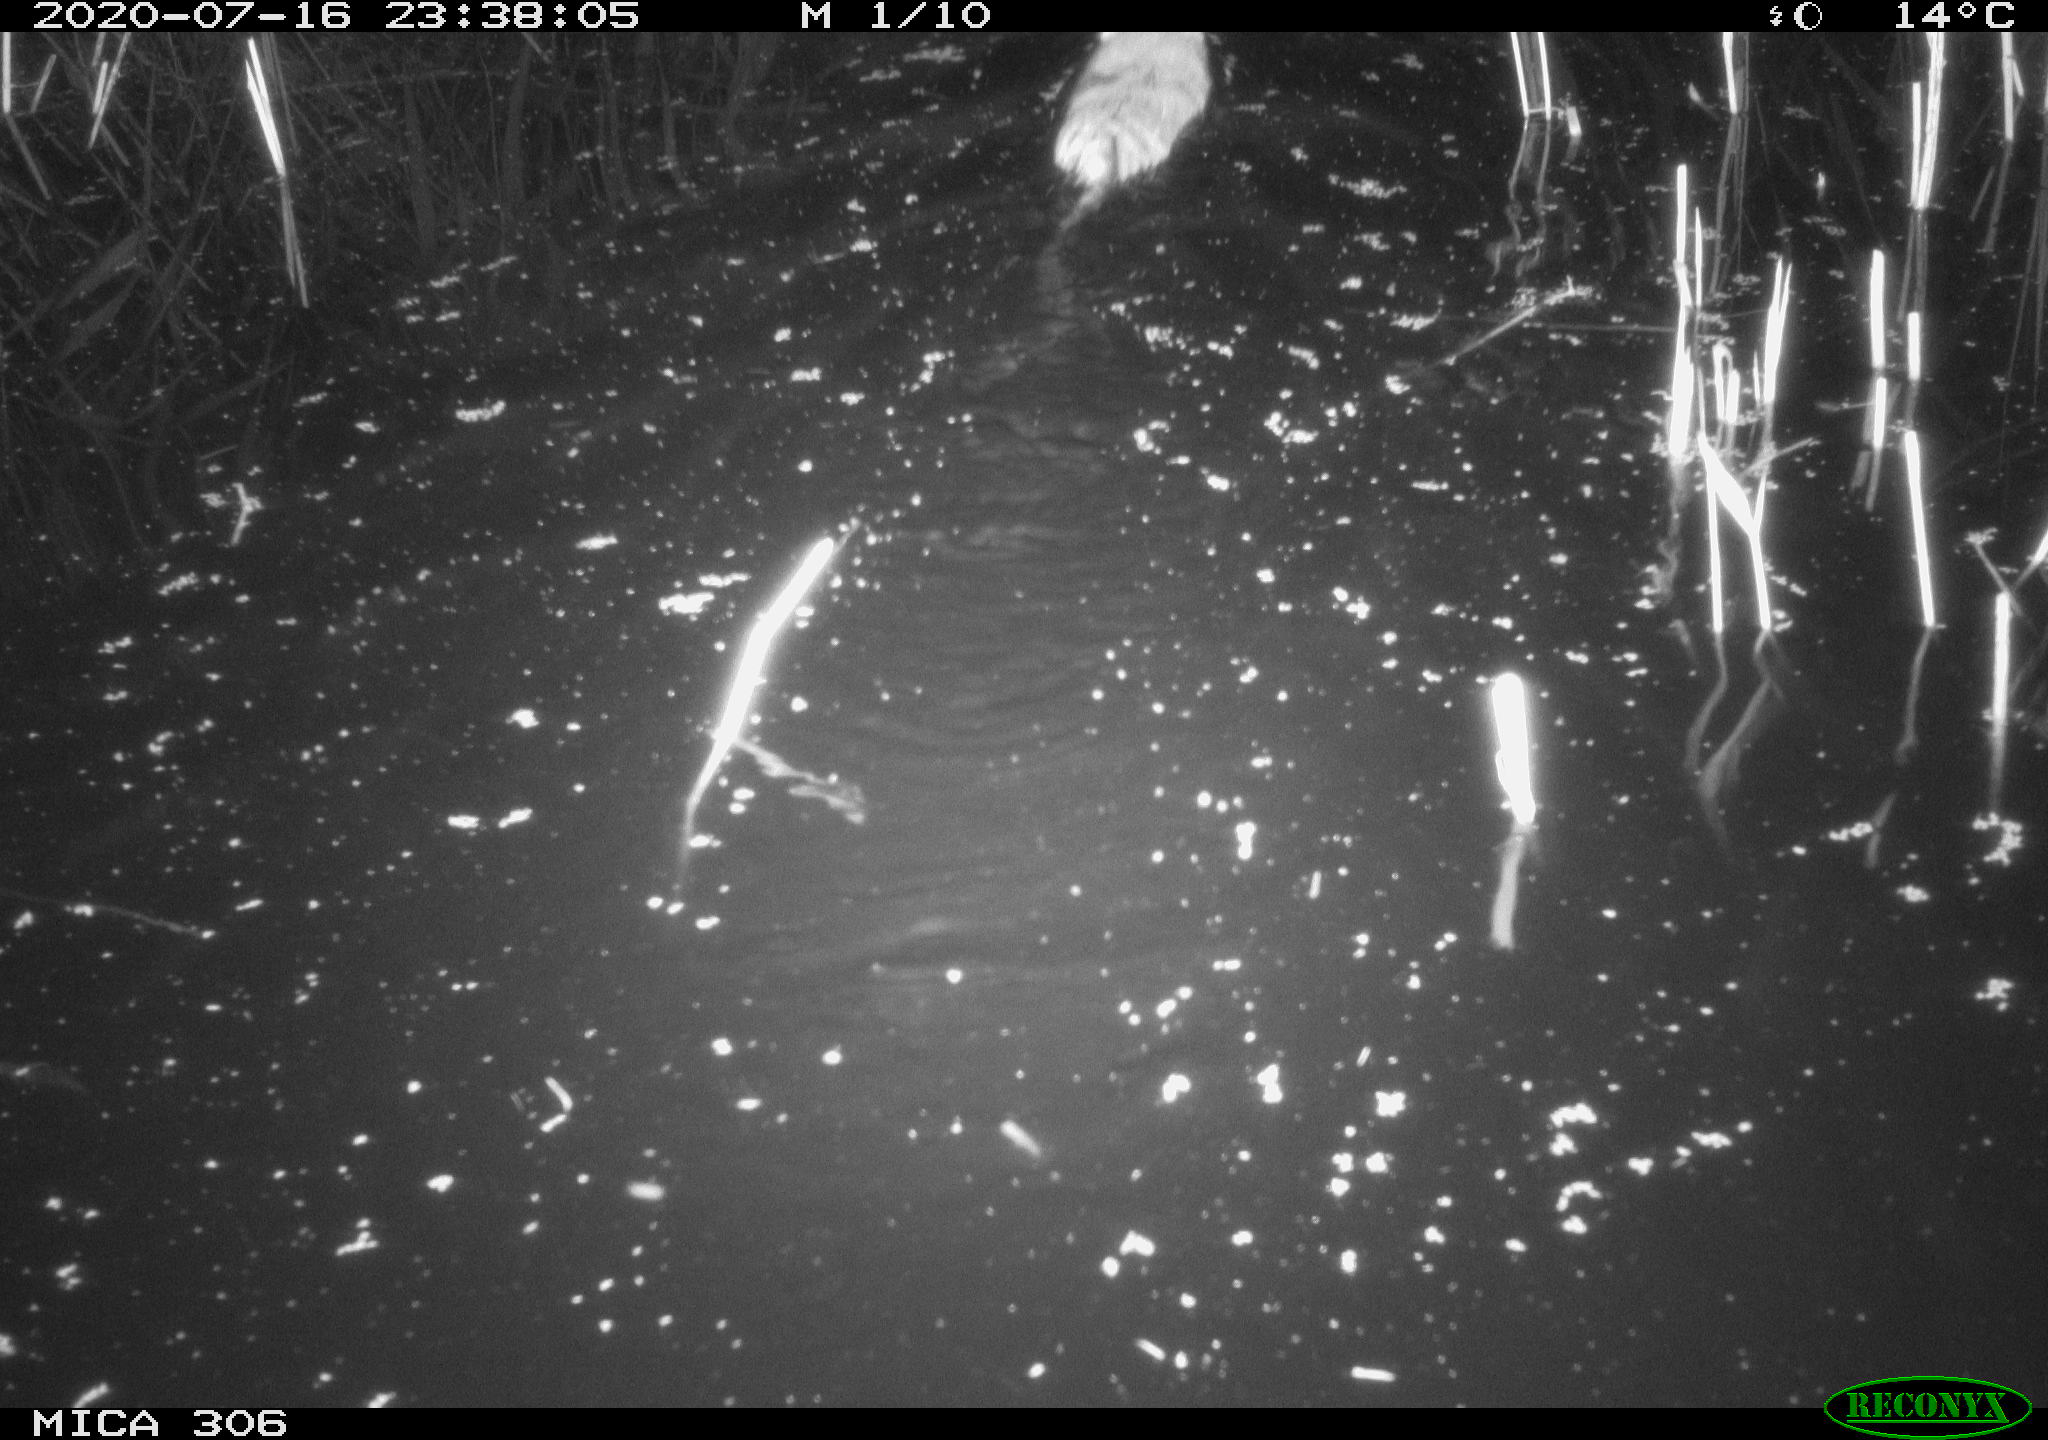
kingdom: Animalia
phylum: Chordata
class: Mammalia
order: Rodentia
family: Cricetidae
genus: Ondatra
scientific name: Ondatra zibethicus
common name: Muskrat
